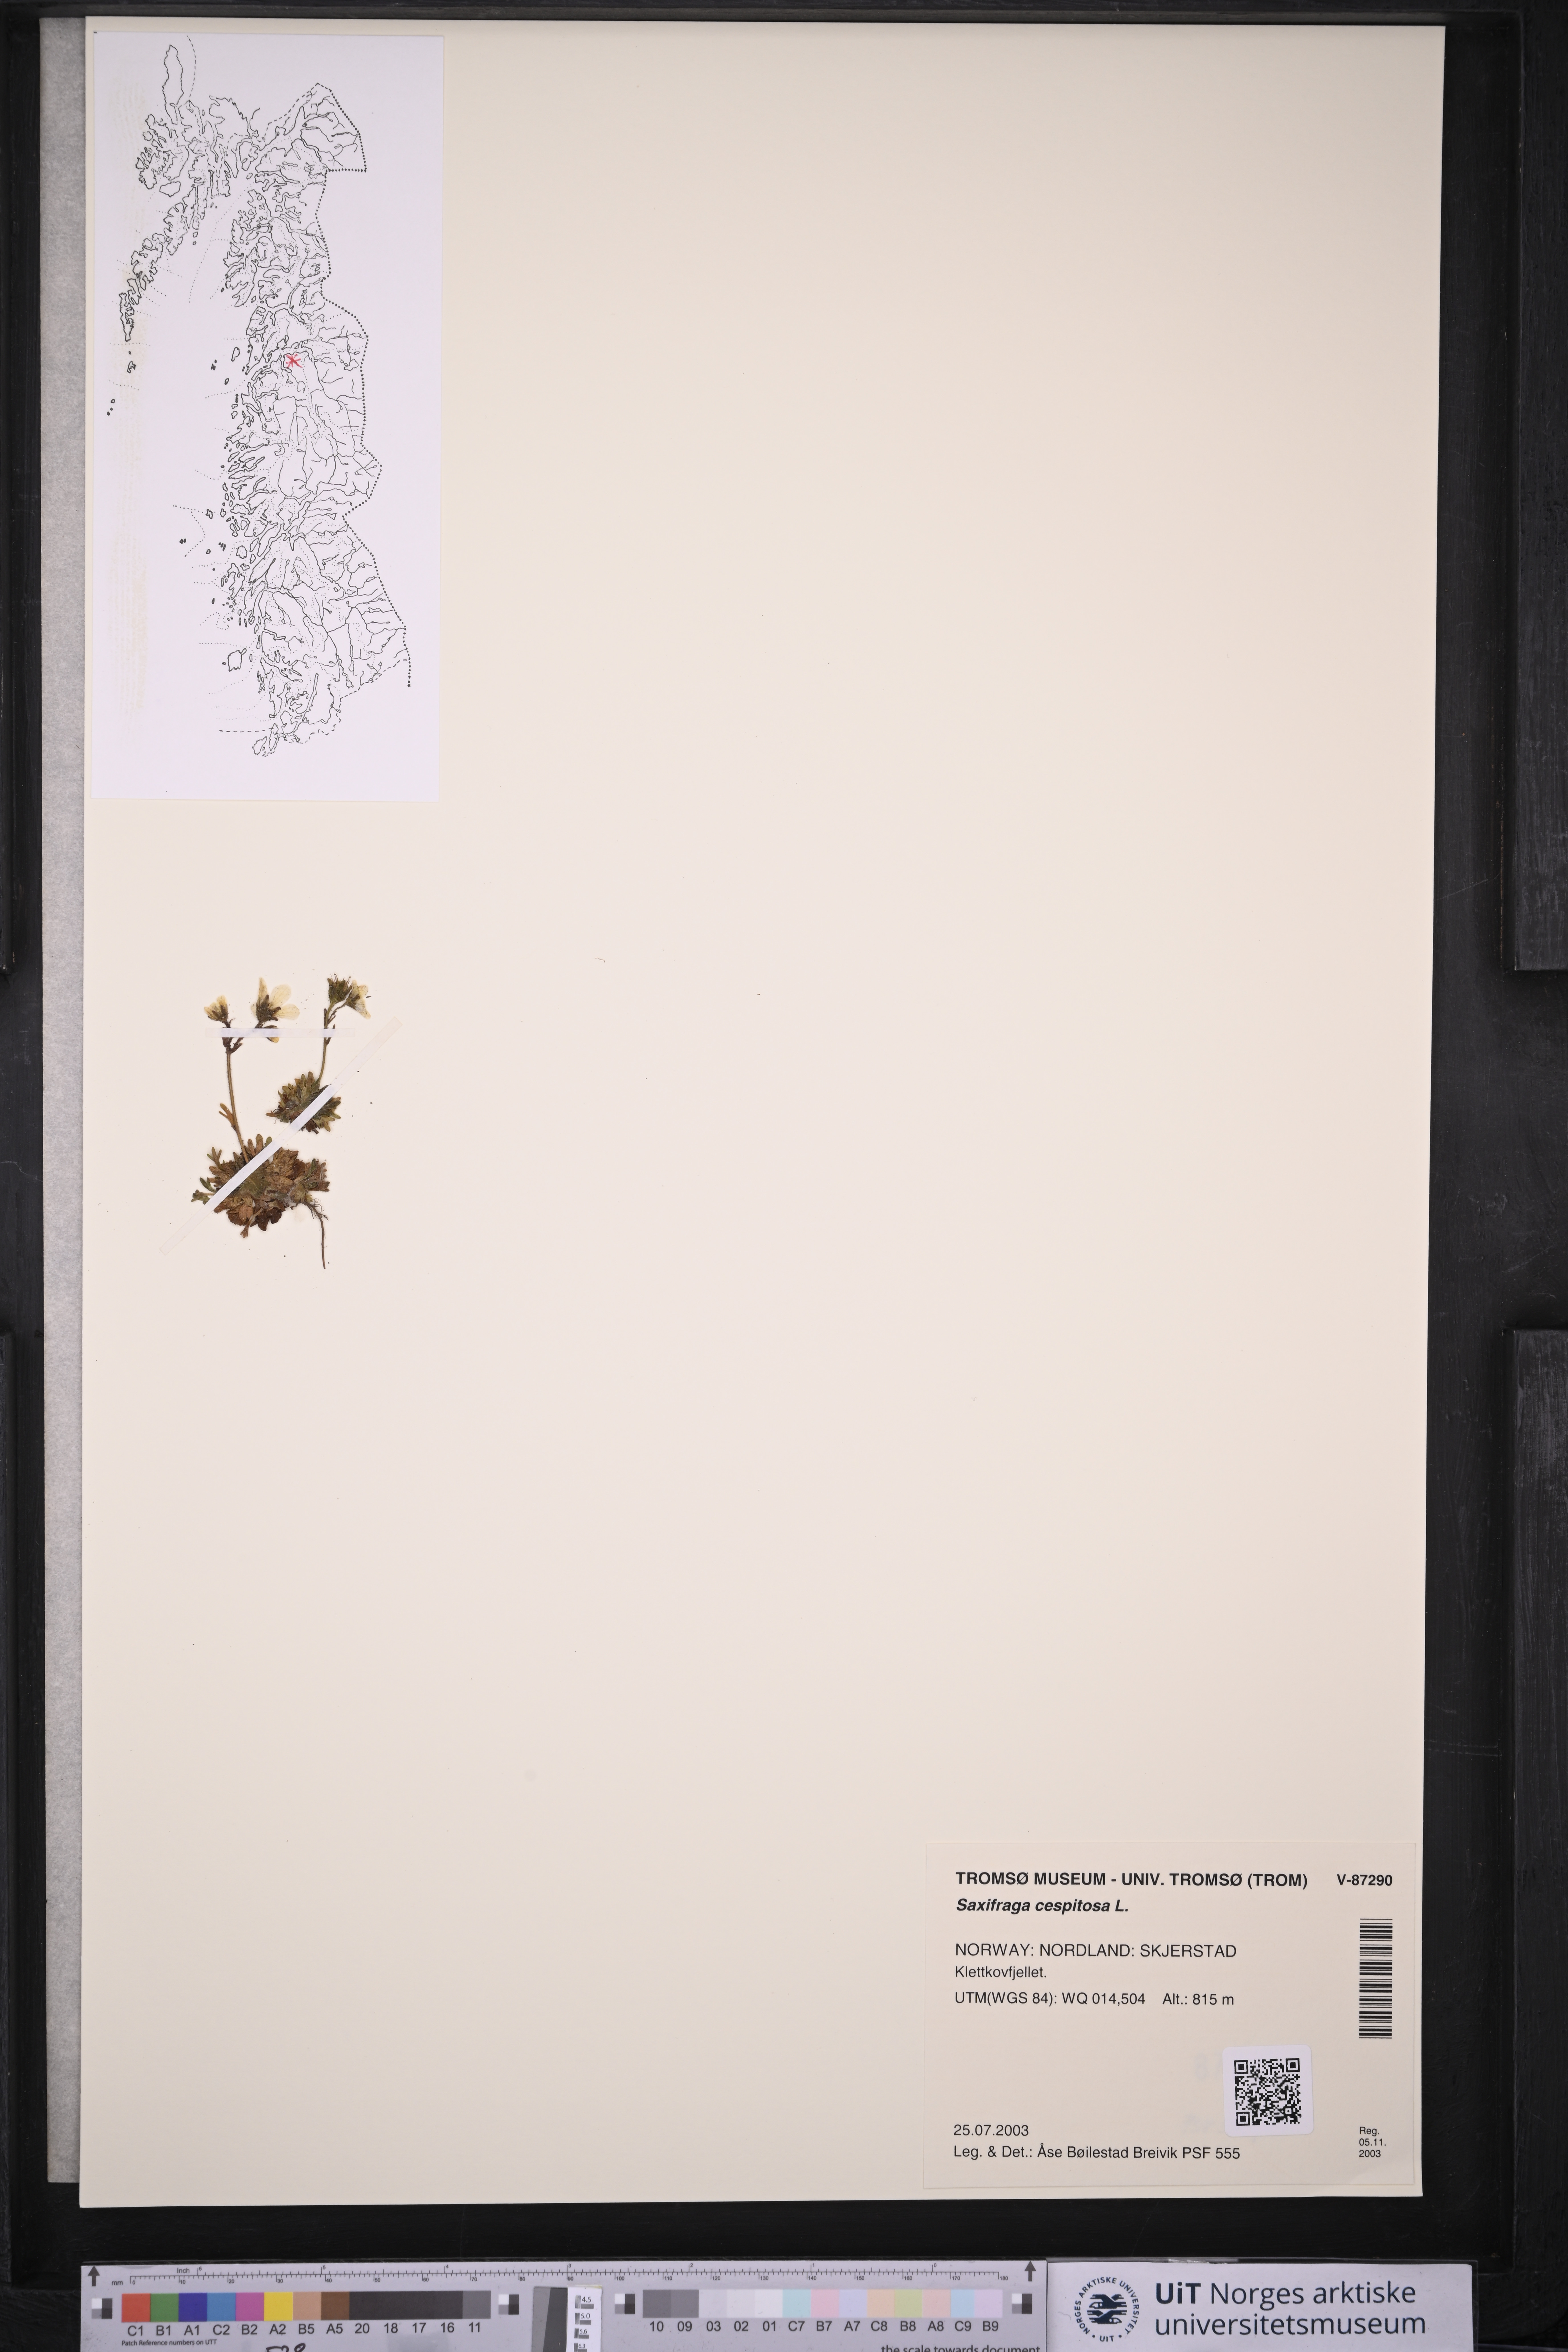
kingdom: Plantae
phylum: Tracheophyta
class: Magnoliopsida
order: Saxifragales
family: Saxifragaceae
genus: Saxifraga
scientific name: Saxifraga cespitosa
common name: Tufted saxifrage
